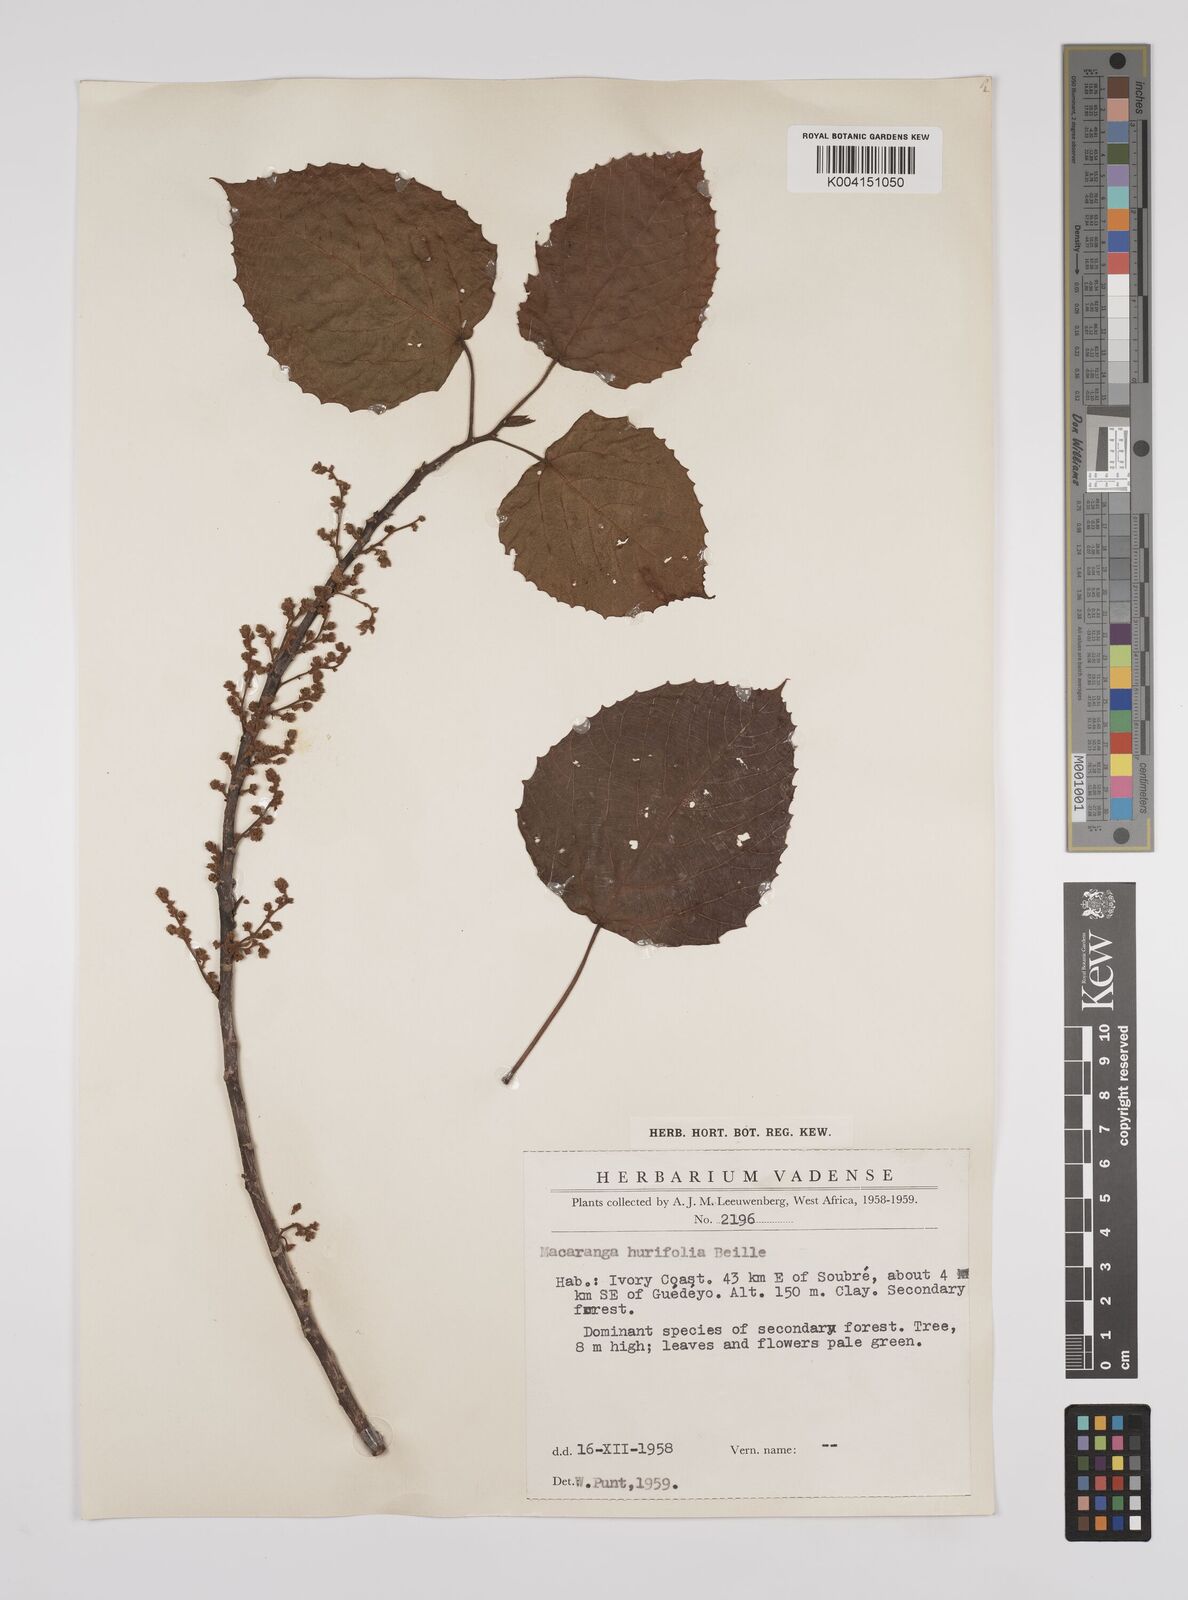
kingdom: Plantae
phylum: Tracheophyta
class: Magnoliopsida
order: Malpighiales
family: Euphorbiaceae
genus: Macaranga
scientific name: Macaranga hurifolia
